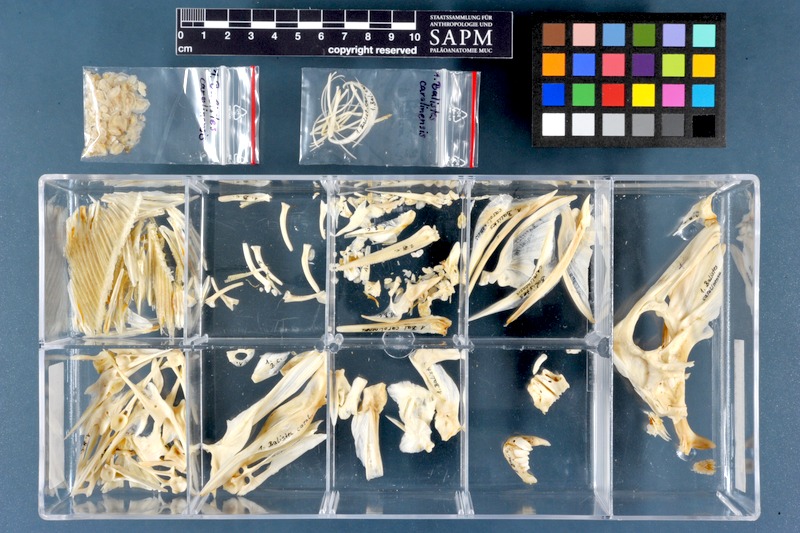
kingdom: Animalia
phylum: Chordata
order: Tetraodontiformes
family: Balistidae
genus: Balistes
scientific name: Balistes capriscus
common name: Grey triggerfish
